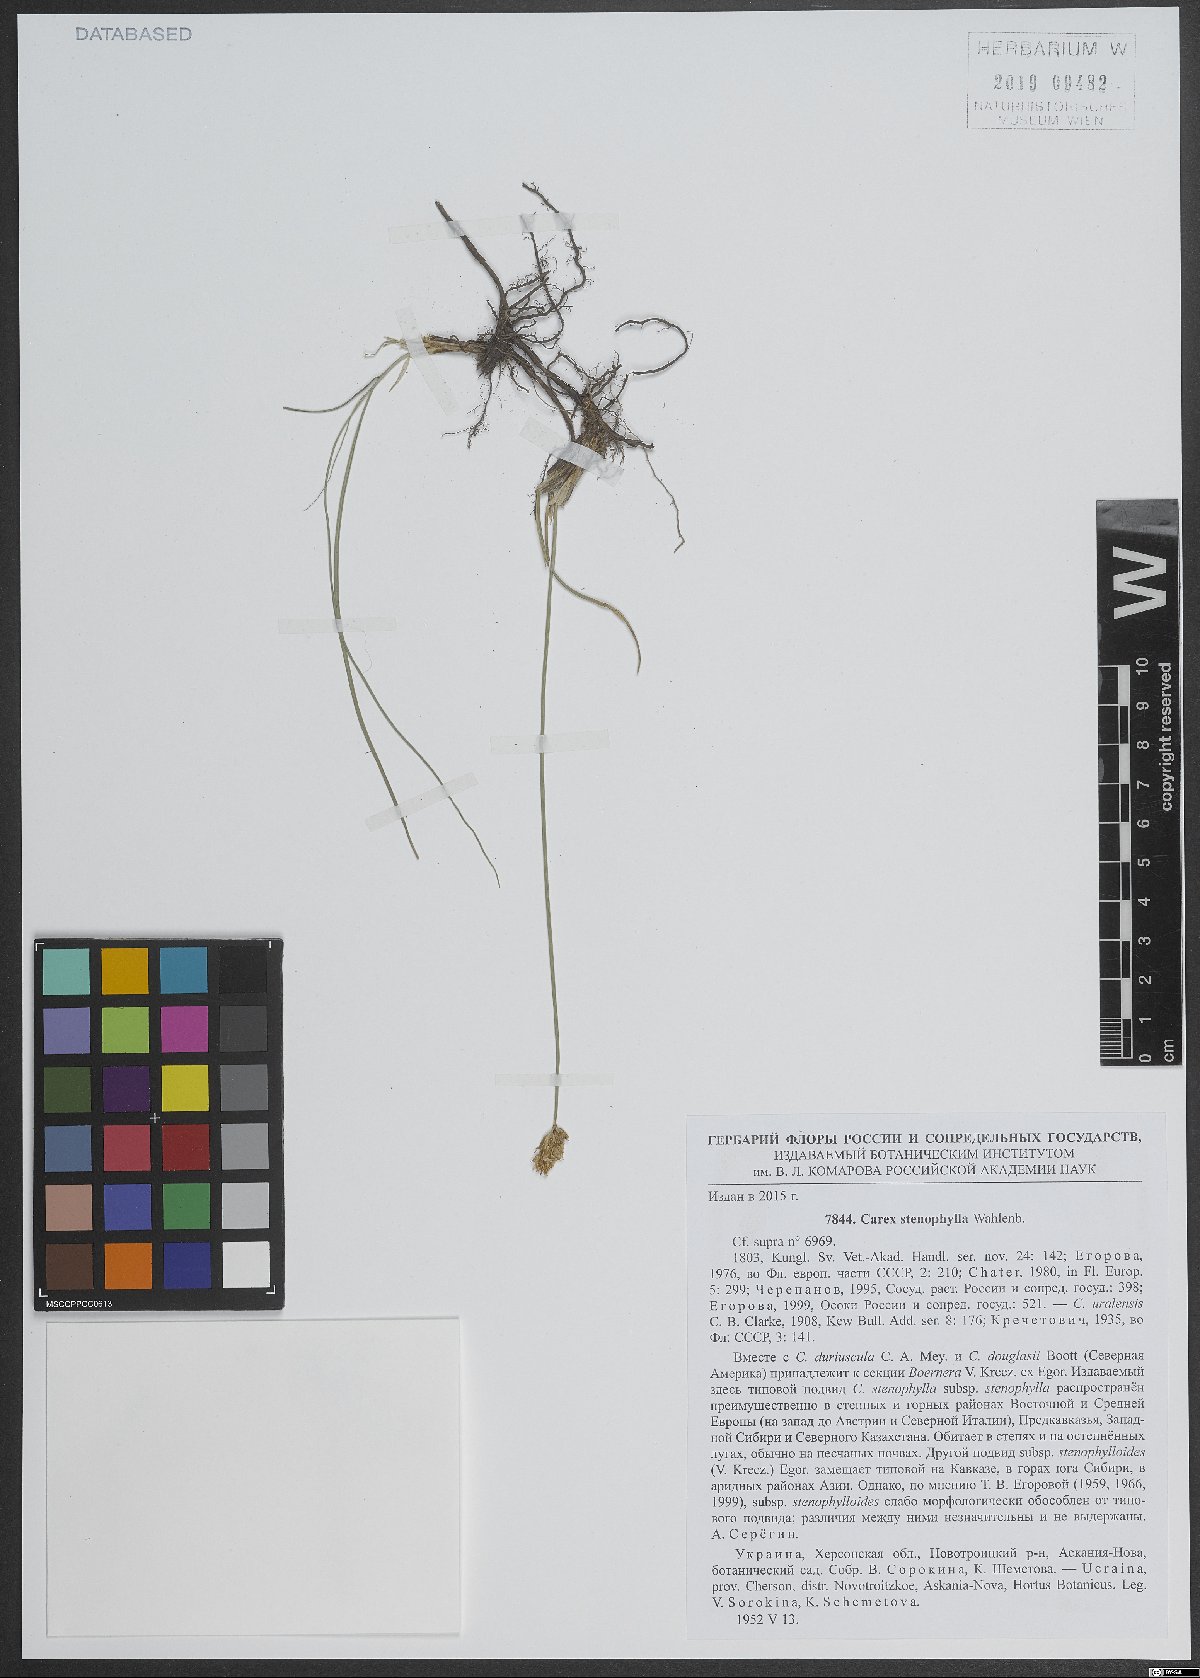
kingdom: Plantae
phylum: Tracheophyta
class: Liliopsida
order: Poales
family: Cyperaceae
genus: Carex
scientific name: Carex stenophylla
